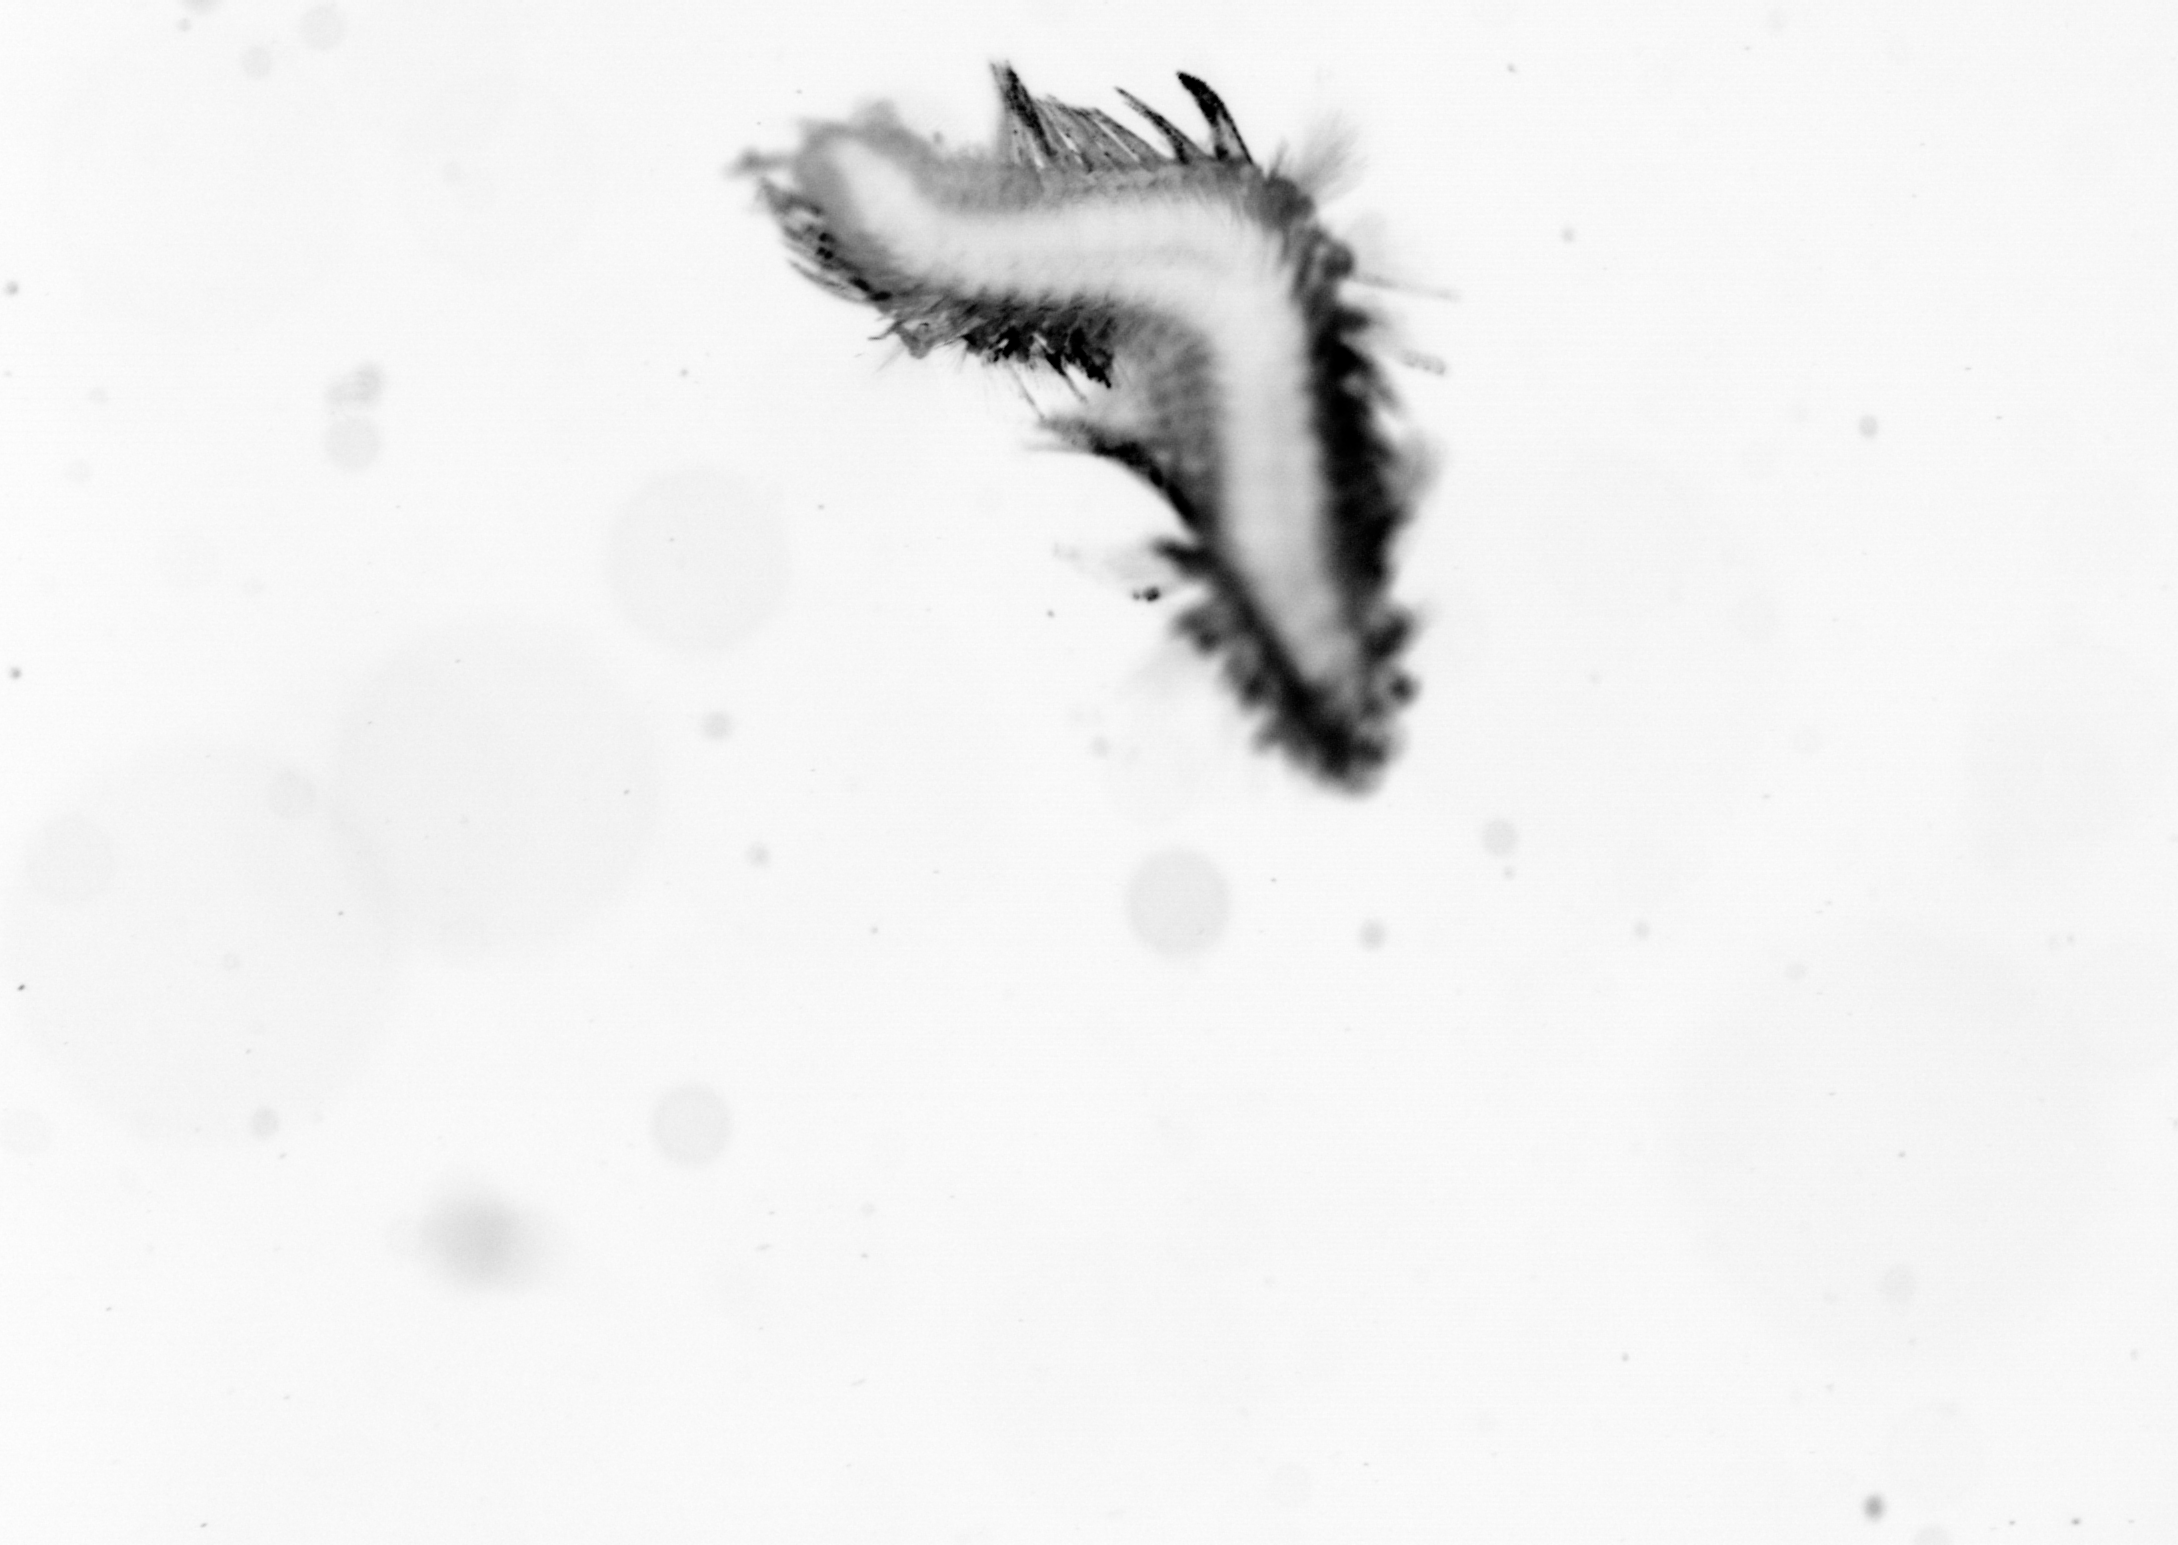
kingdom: Animalia
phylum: Annelida
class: Polychaeta
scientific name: Polychaeta
